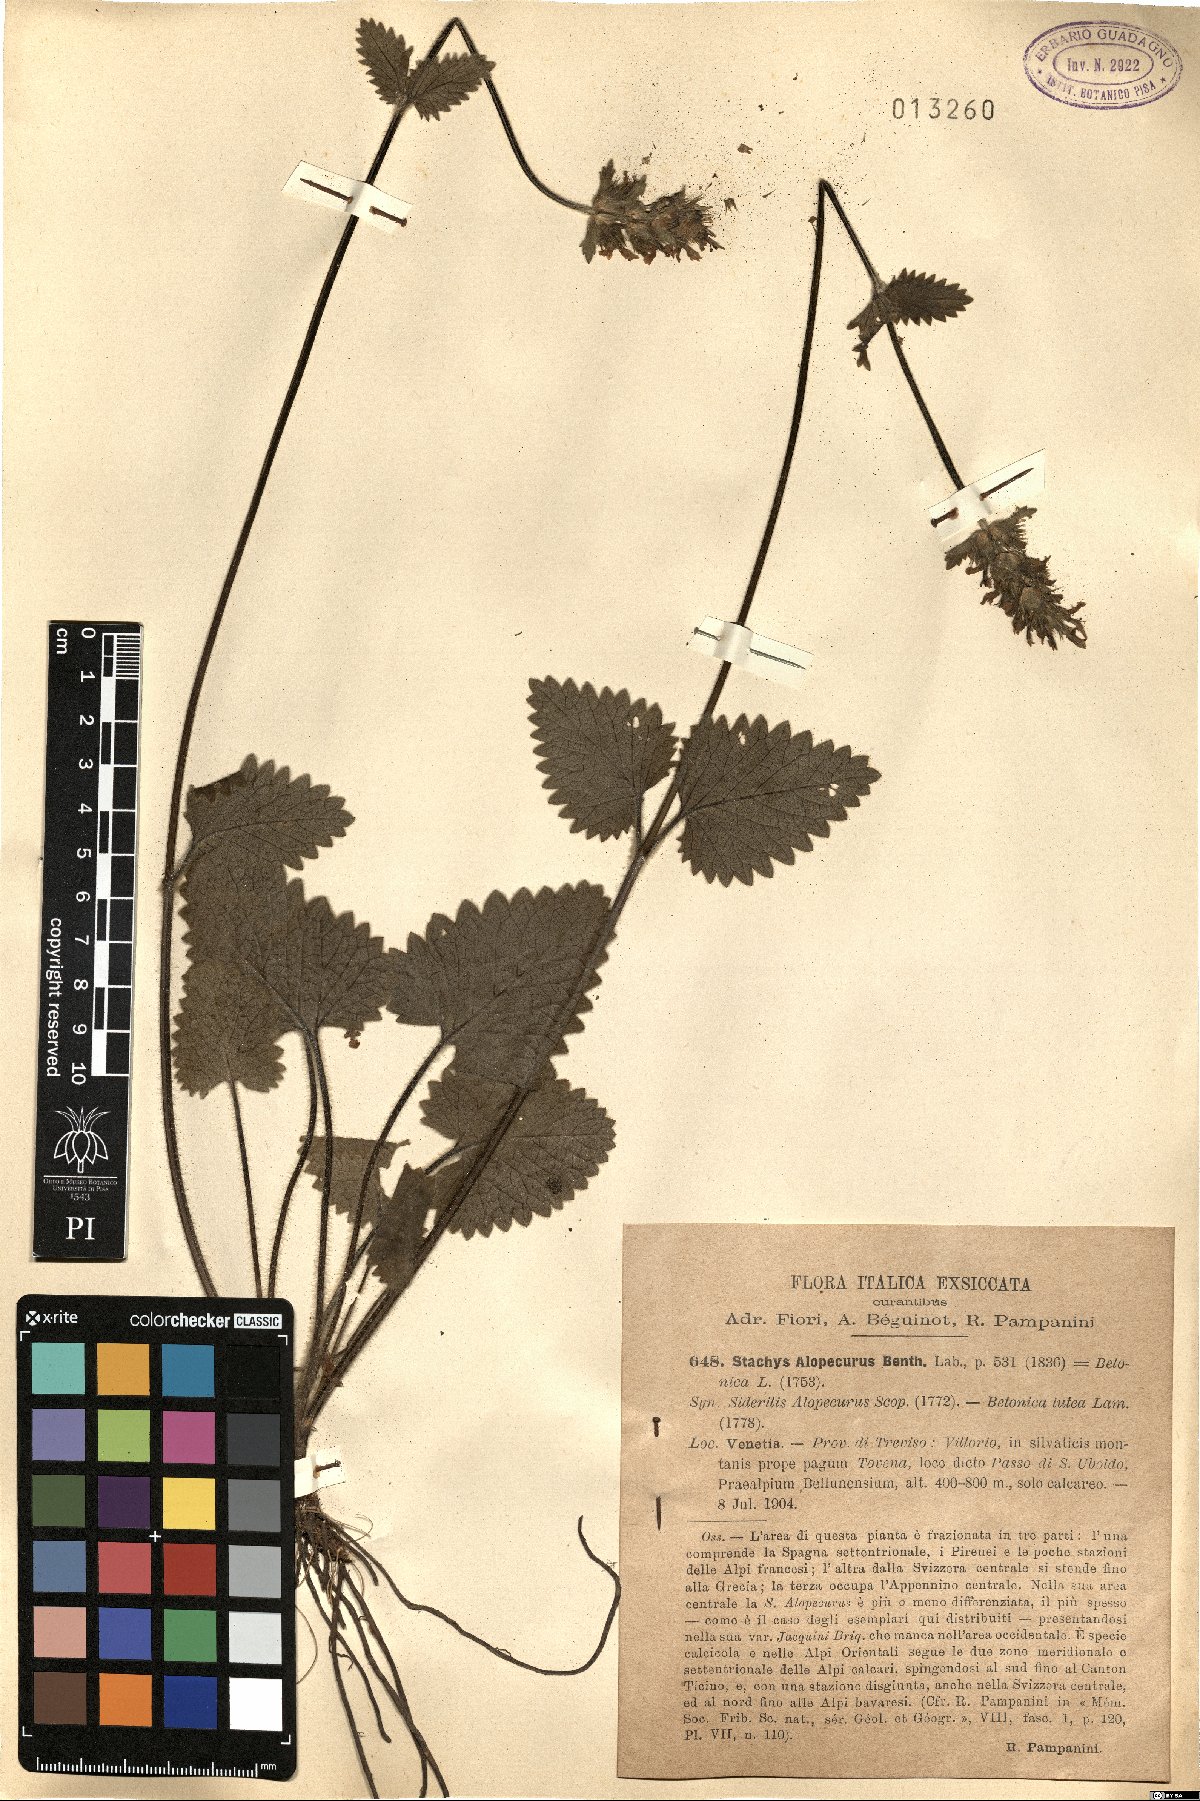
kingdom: Plantae
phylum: Tracheophyta
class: Magnoliopsida
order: Lamiales
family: Lamiaceae
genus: Betonica
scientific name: Betonica alopecuros
